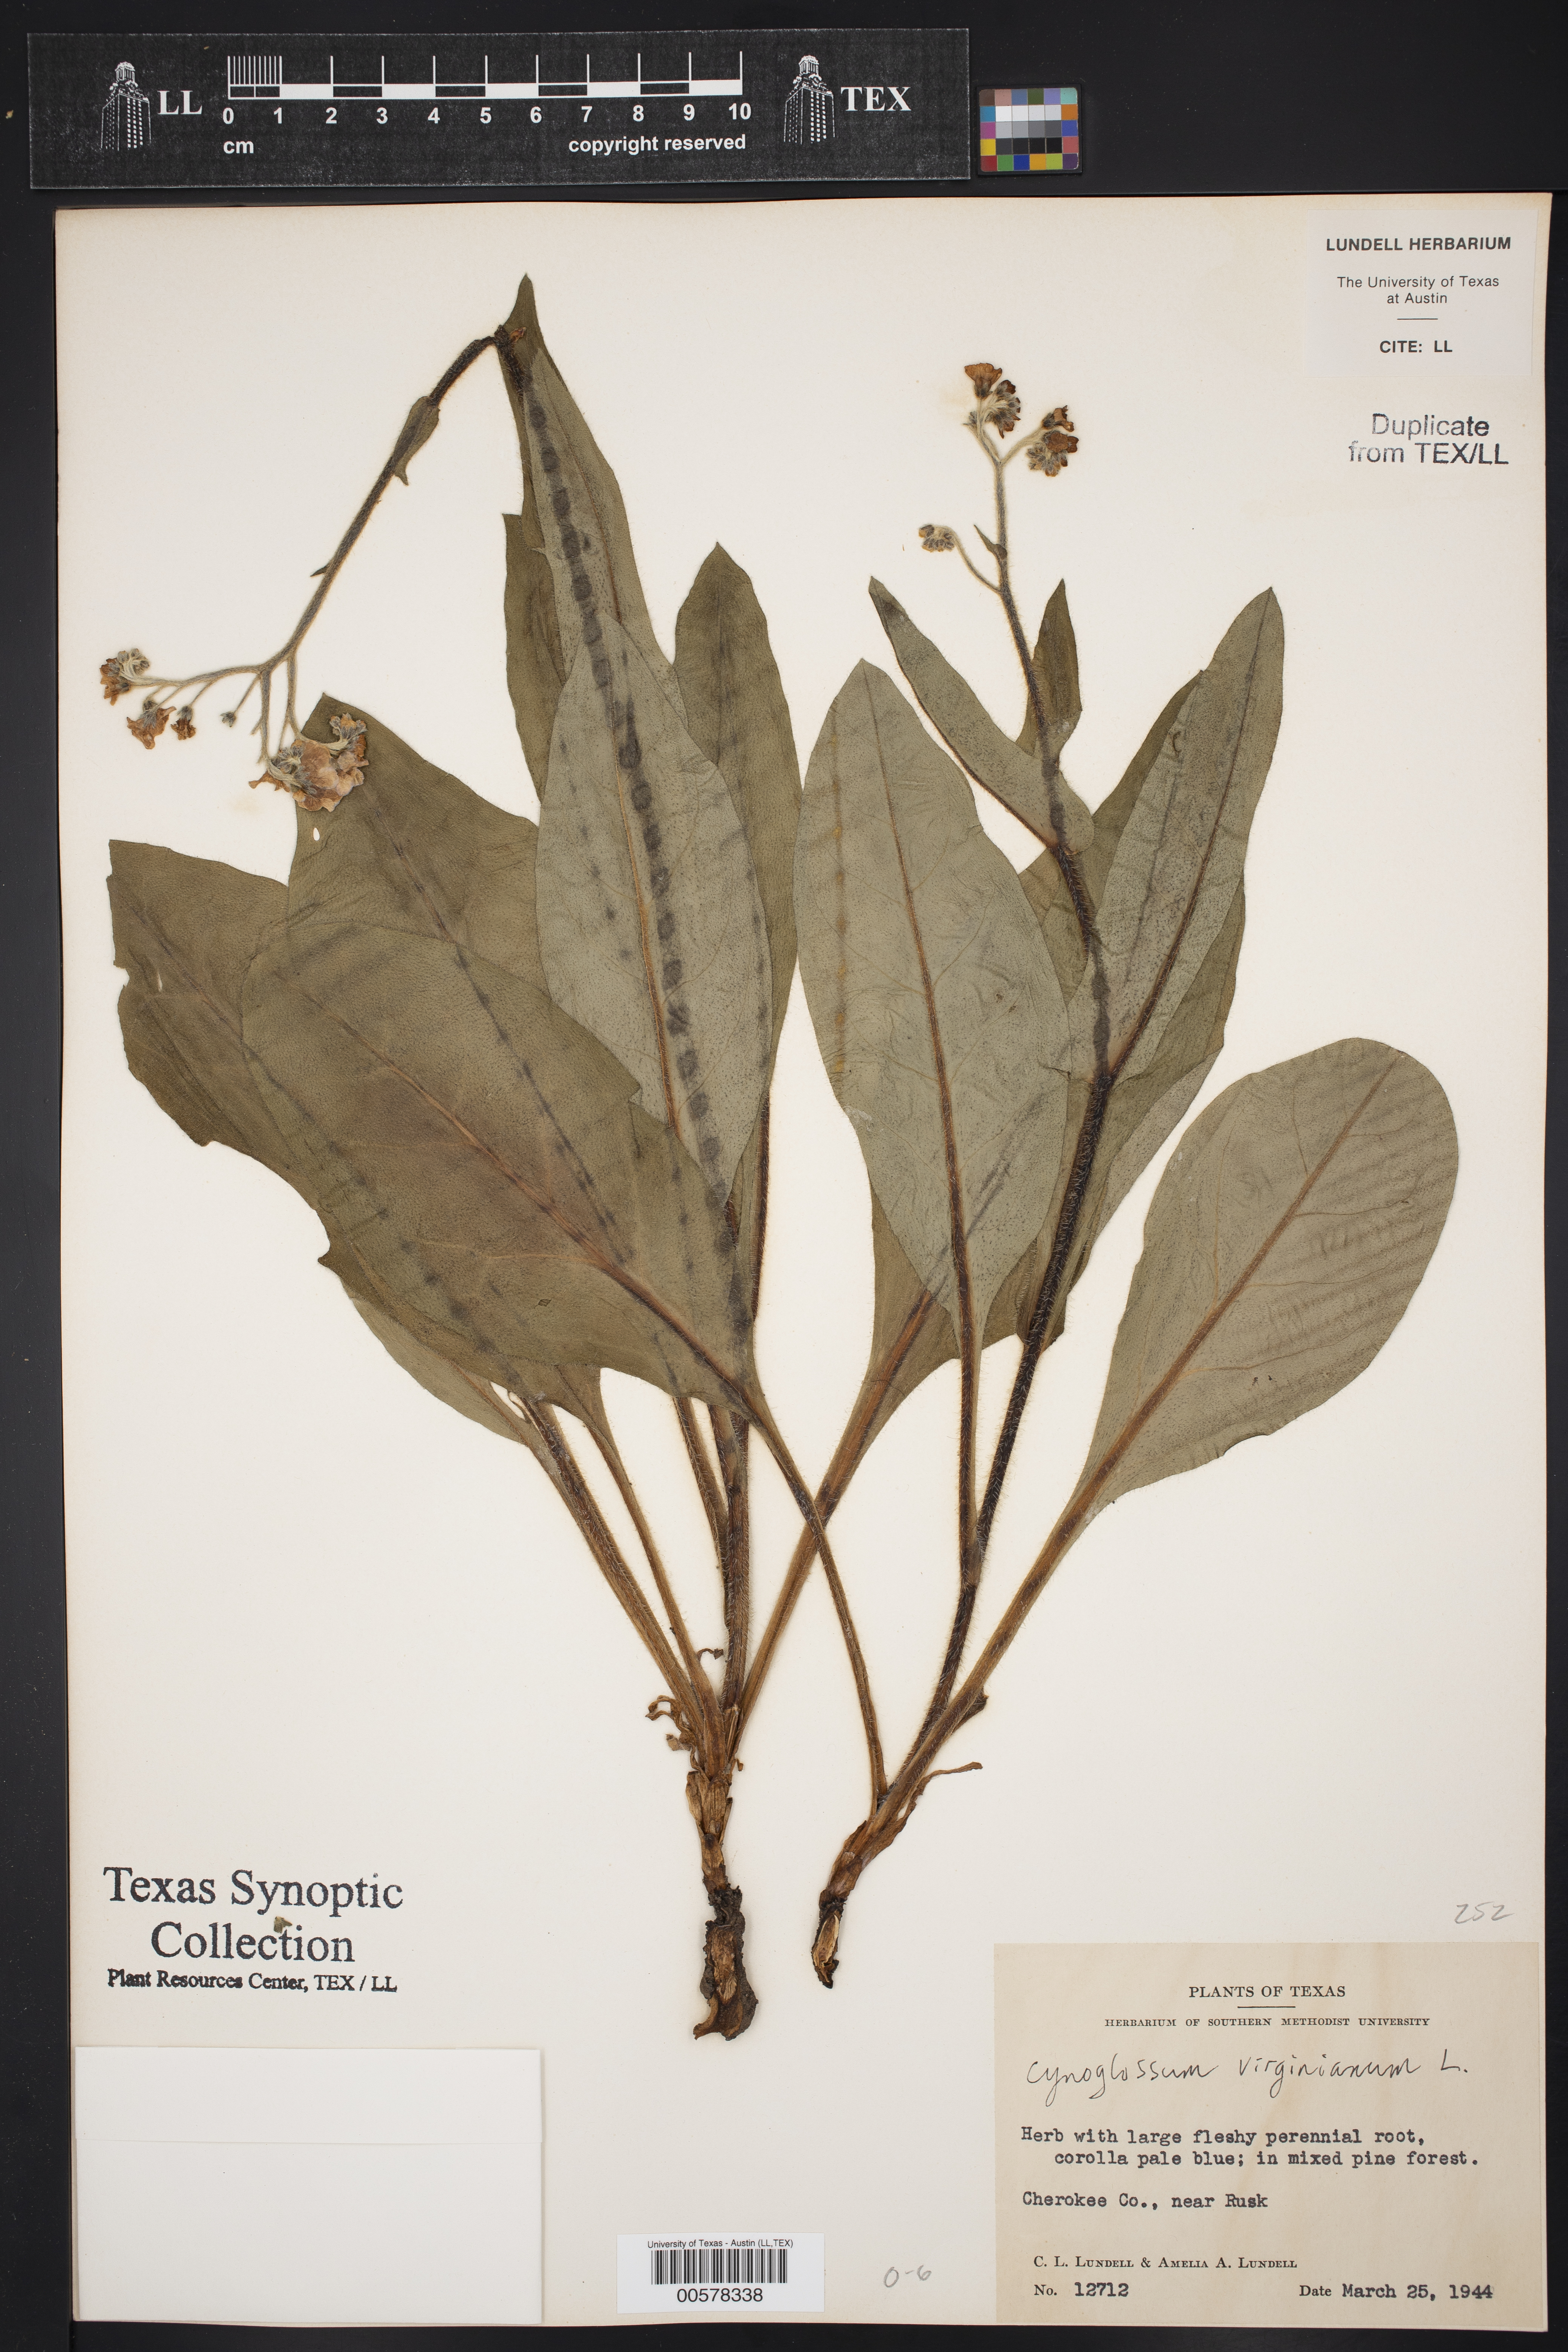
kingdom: Plantae
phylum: Tracheophyta
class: Magnoliopsida
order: Boraginales
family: Boraginaceae
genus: Andersonglossum
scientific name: Andersonglossum virginianum
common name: Wild comfrey
